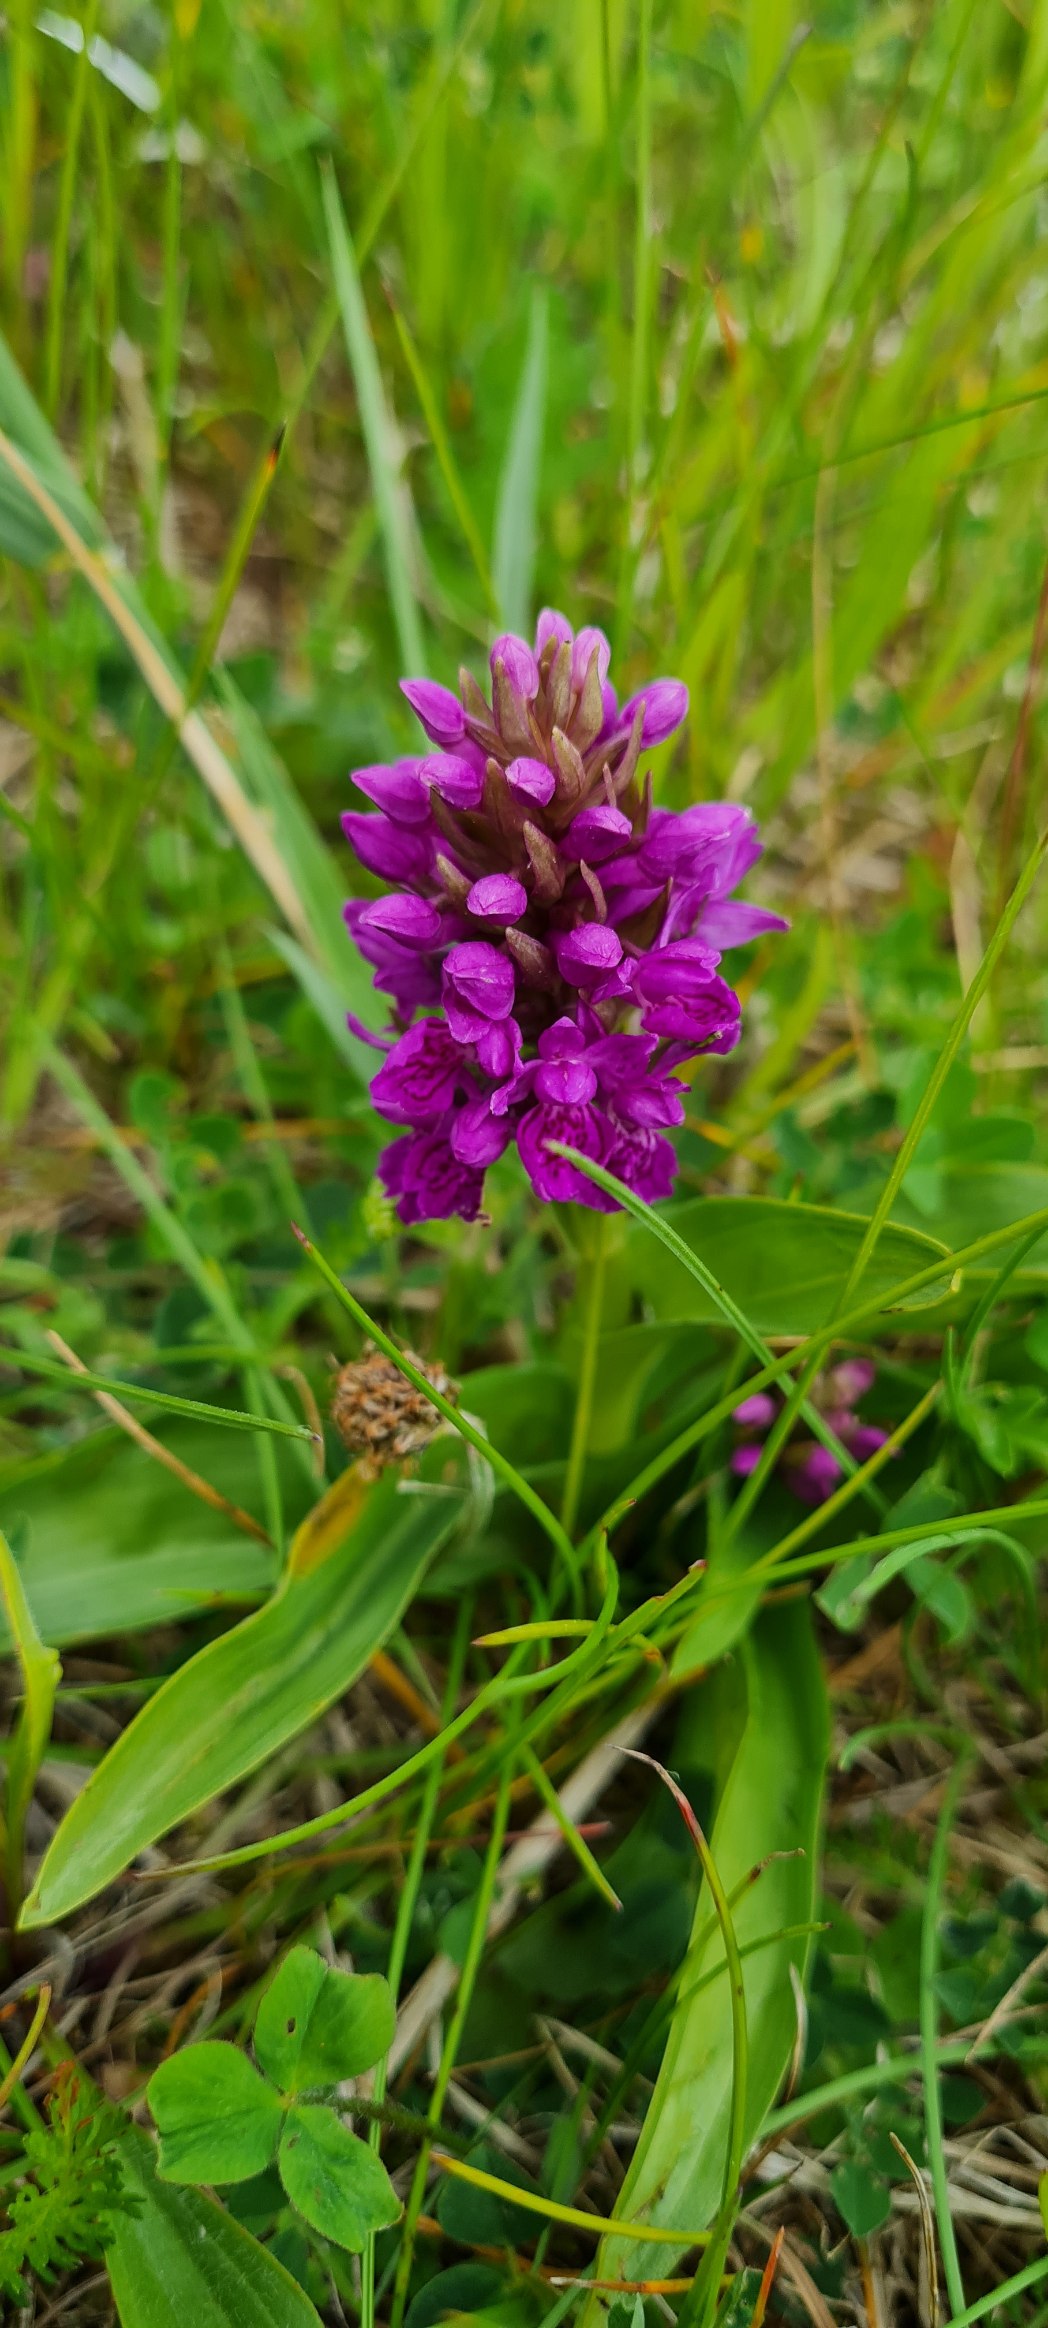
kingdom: Plantae
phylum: Tracheophyta
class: Liliopsida
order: Asparagales
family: Orchidaceae
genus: Dactylorhiza
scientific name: Dactylorhiza majalis
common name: Purpur-gøgeurt
